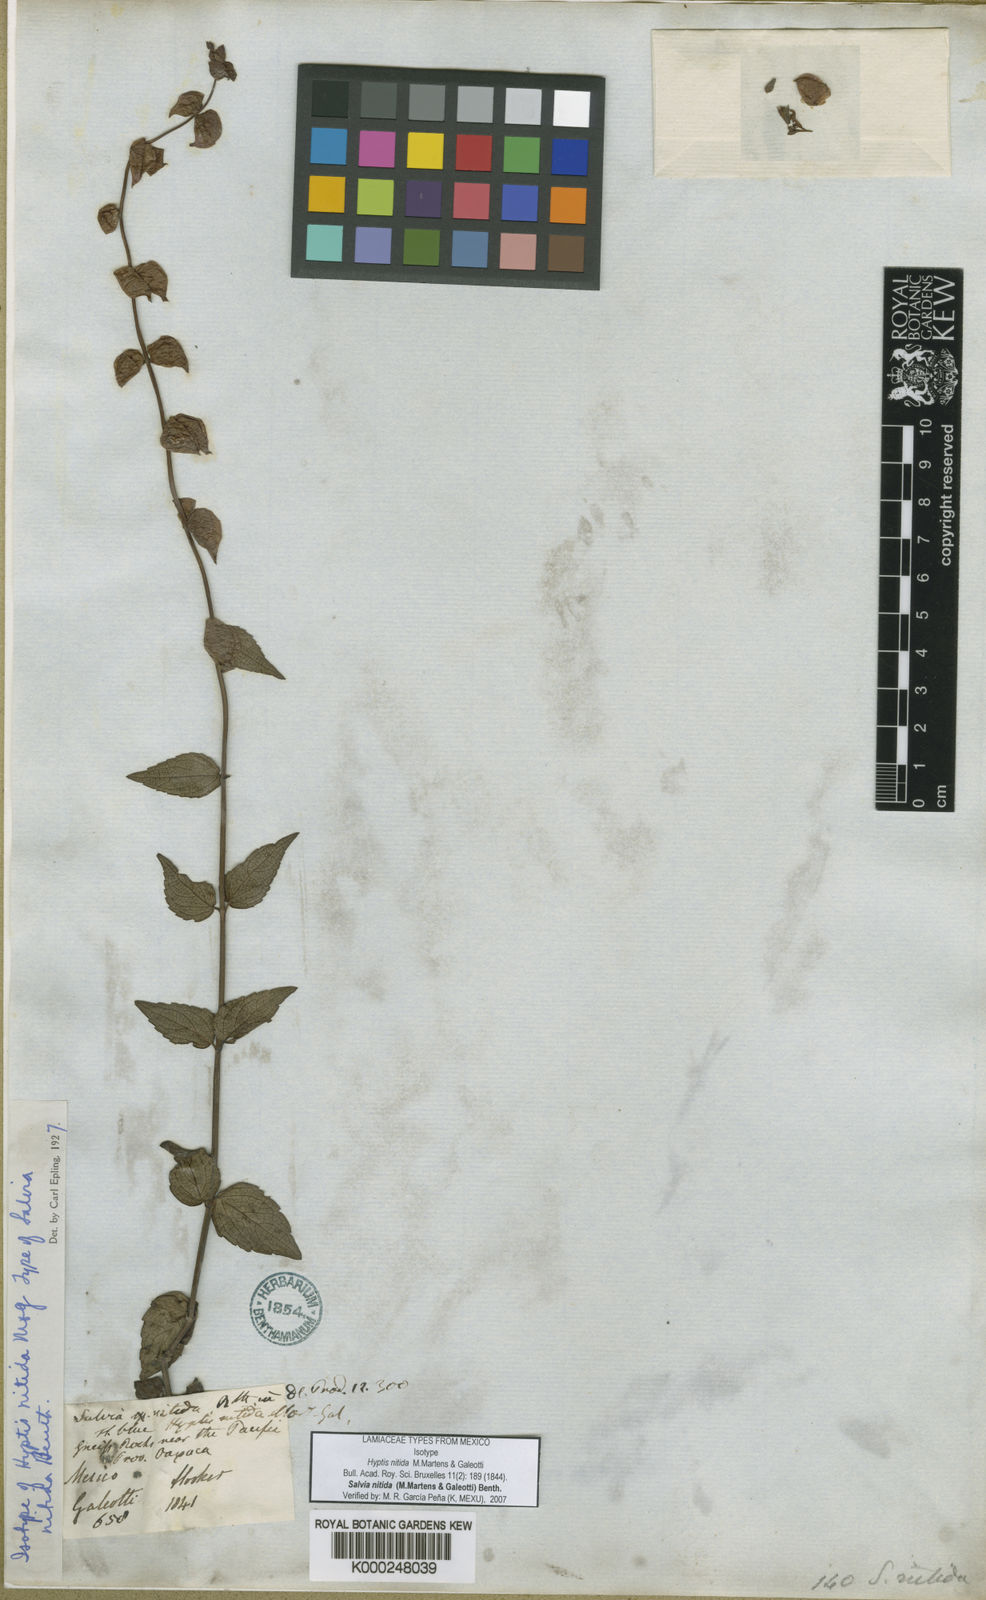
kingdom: Plantae
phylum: Tracheophyta
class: Magnoliopsida
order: Lamiales
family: Lamiaceae
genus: Salvia
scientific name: Salvia nitida
